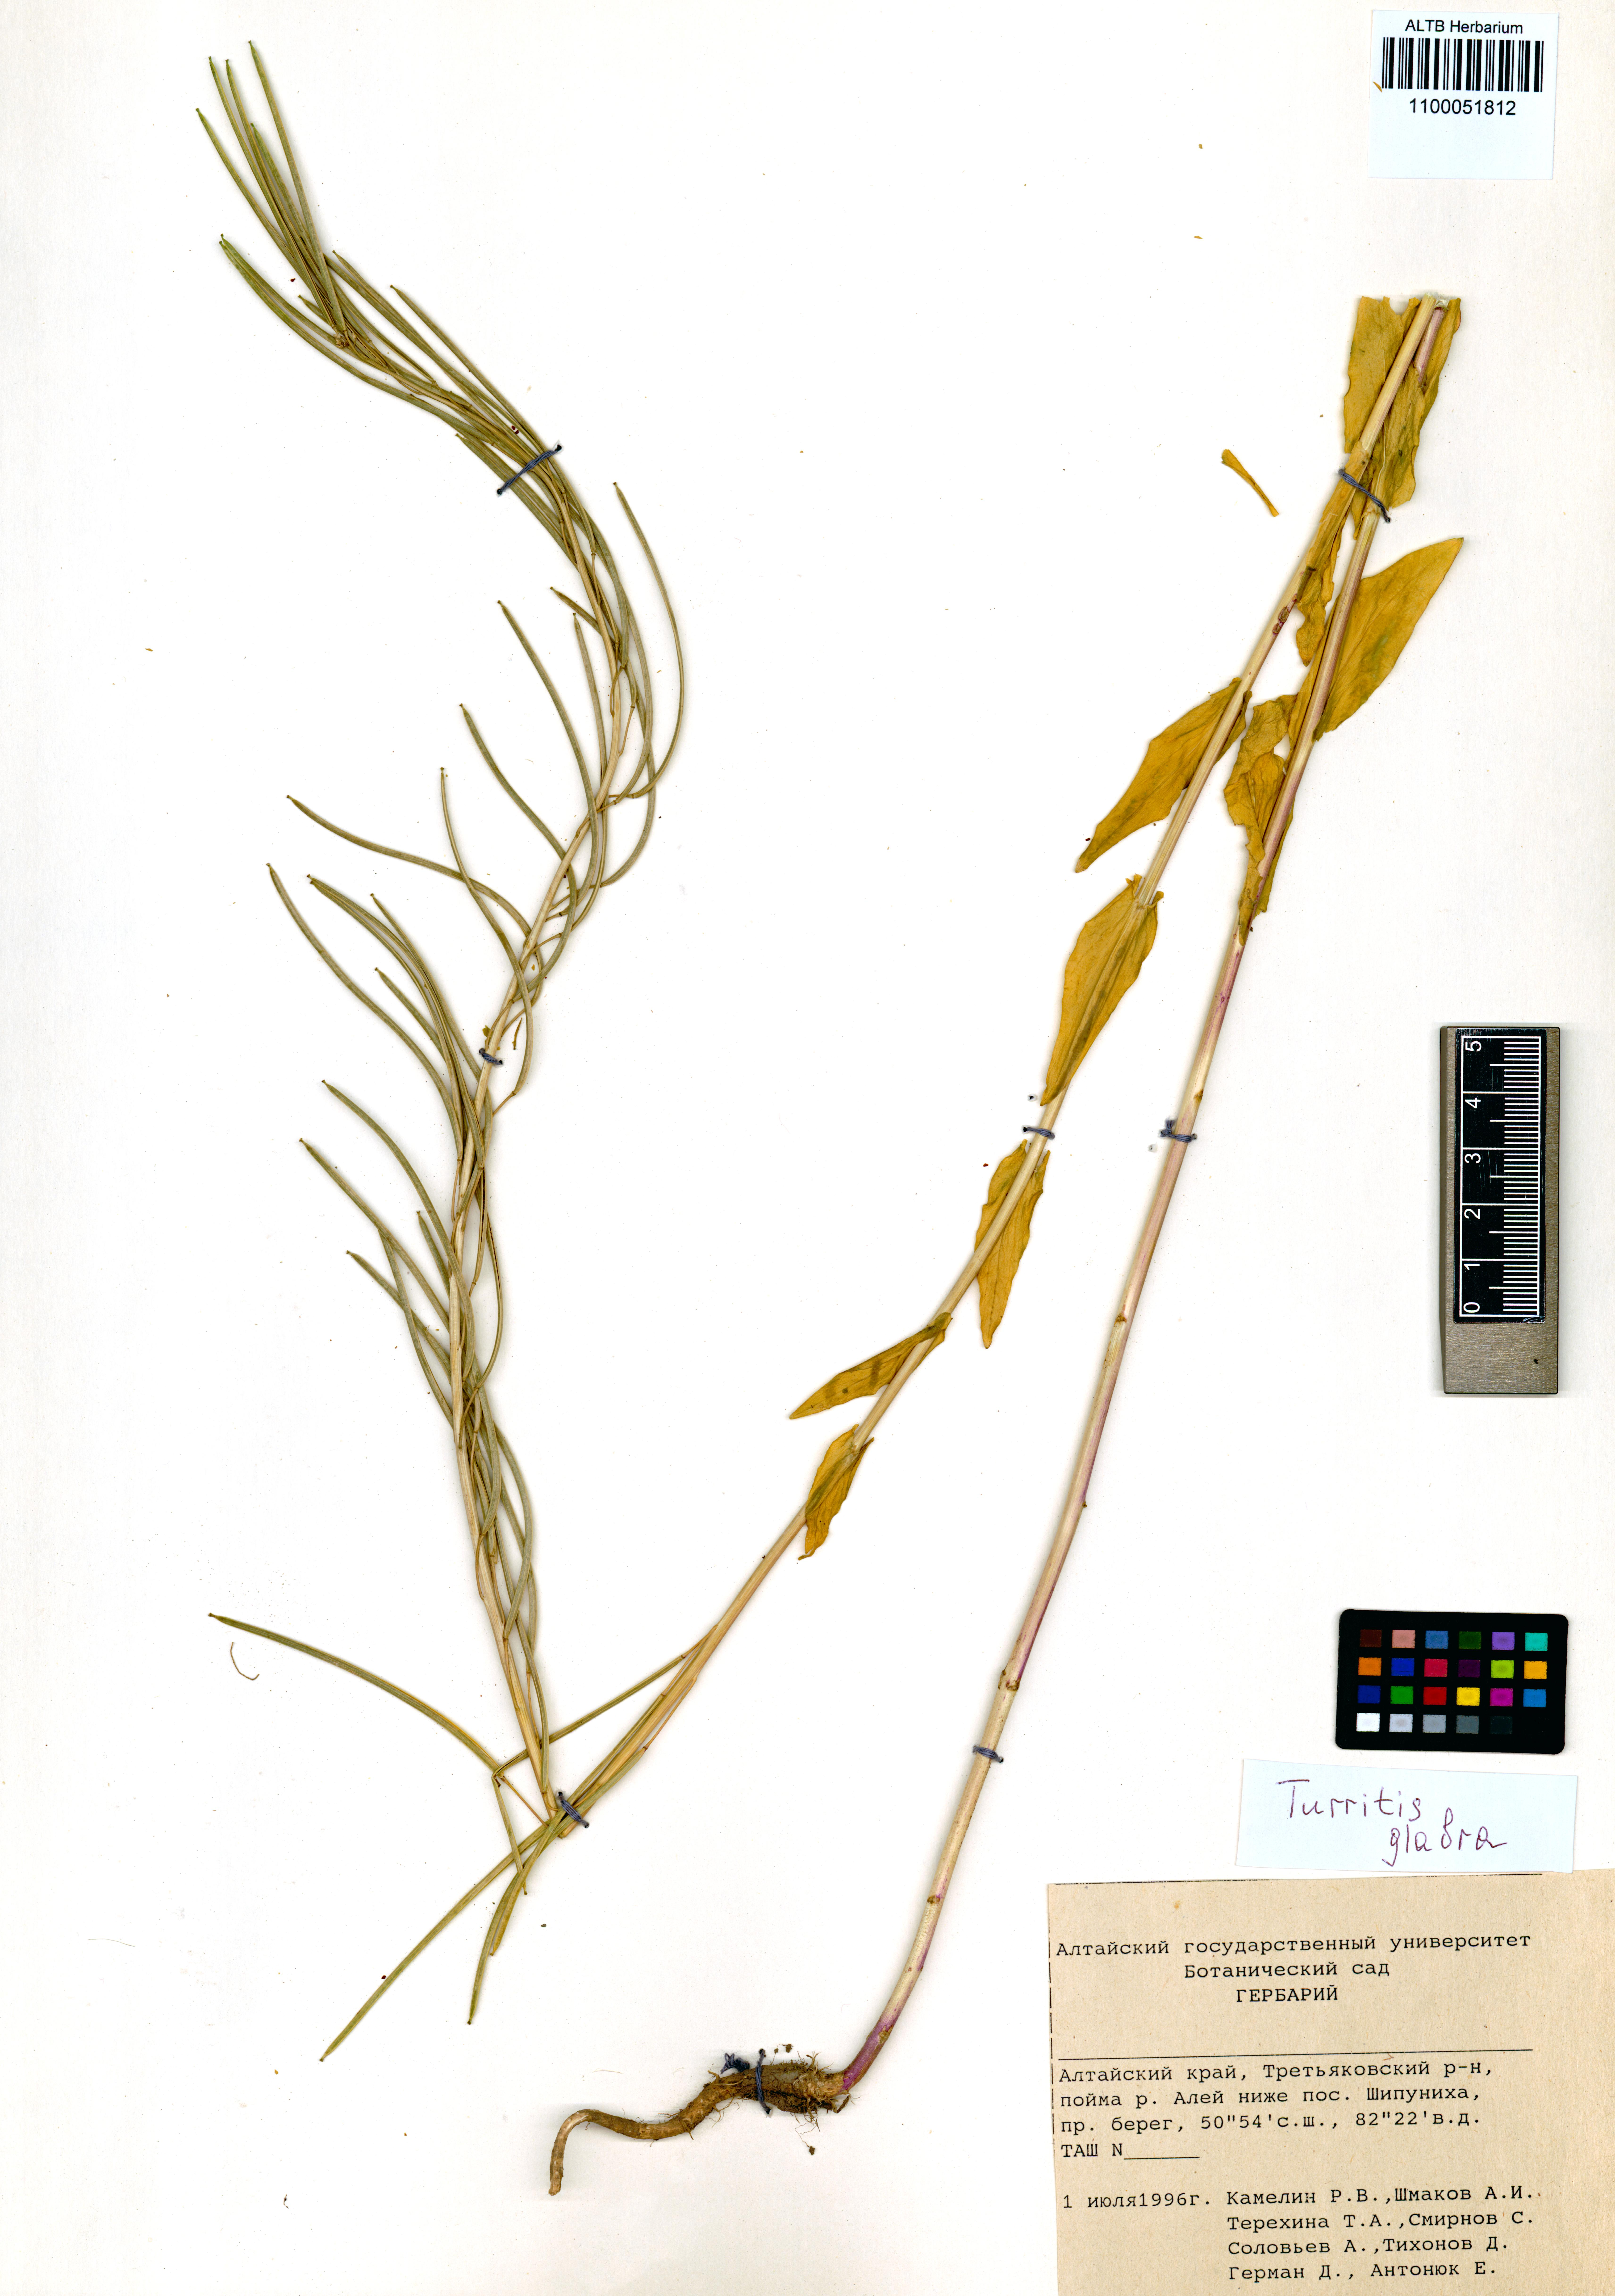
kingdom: Plantae
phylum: Tracheophyta
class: Magnoliopsida
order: Brassicales
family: Brassicaceae
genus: Turritis
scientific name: Turritis glabra
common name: Tower rockcress
